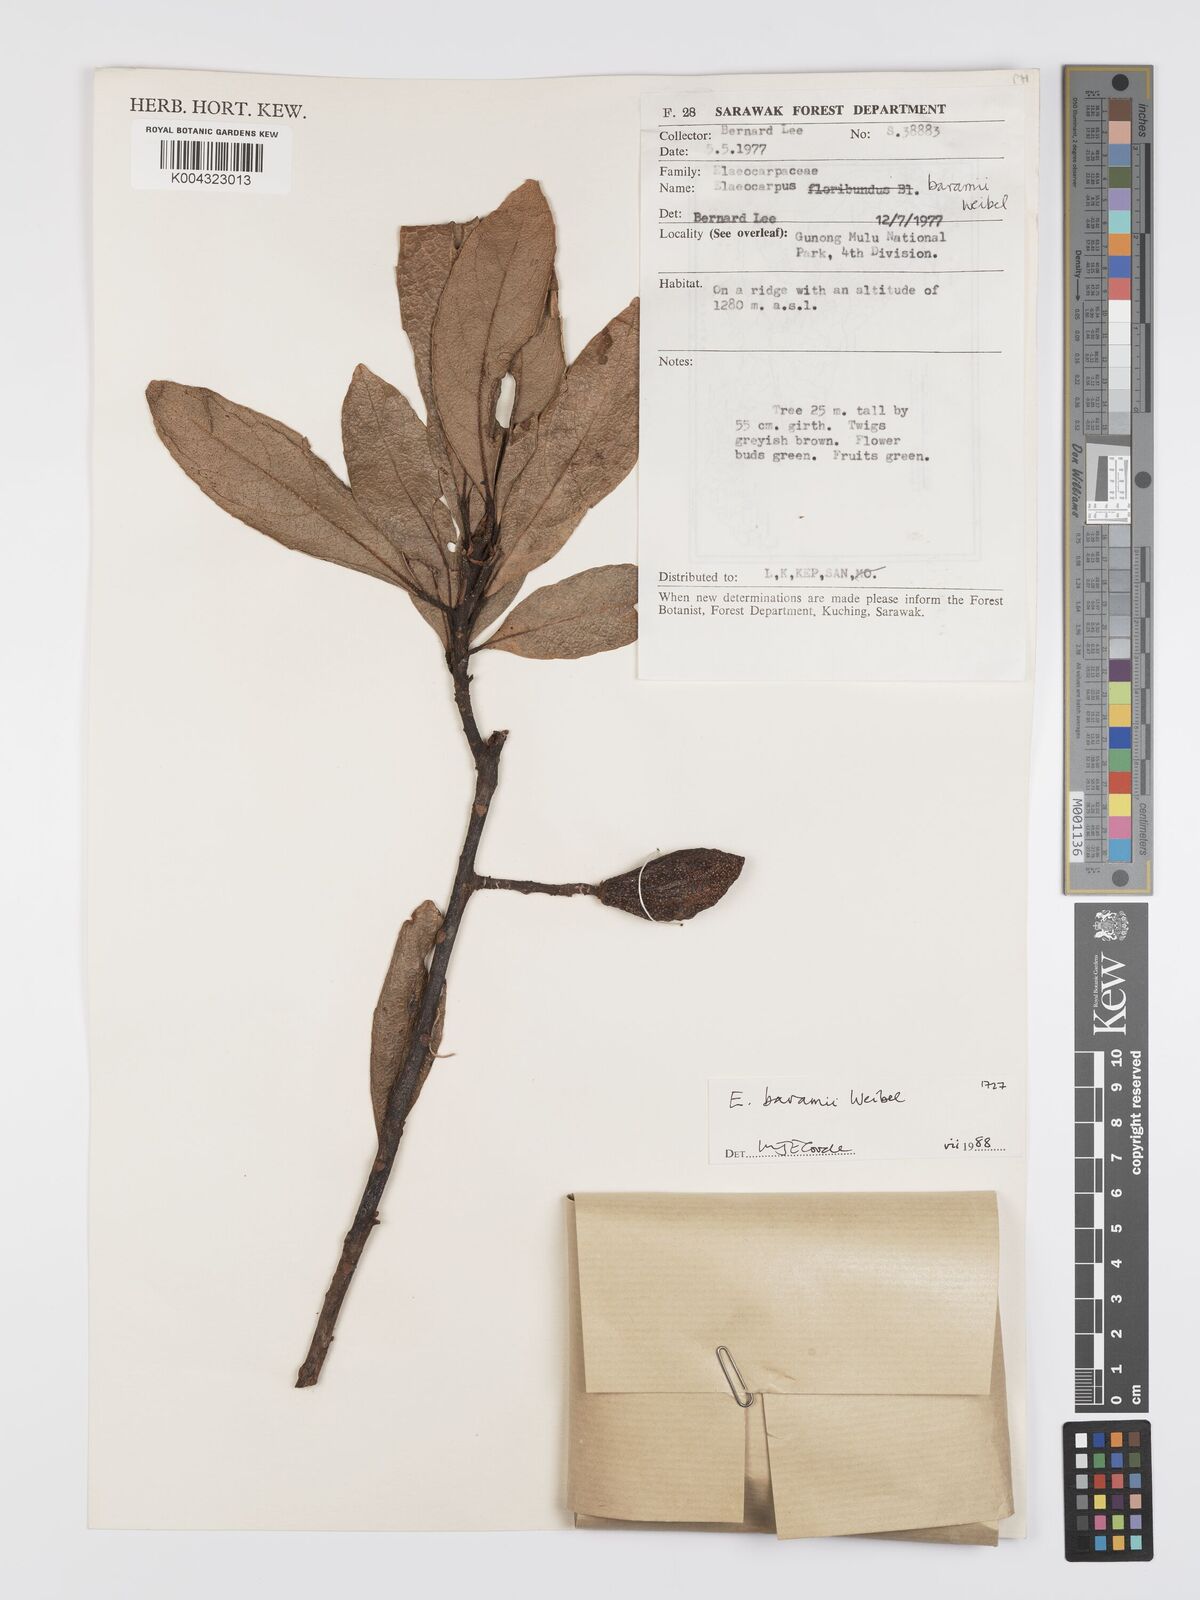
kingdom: Plantae
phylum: Tracheophyta
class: Magnoliopsida
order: Oxalidales
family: Elaeocarpaceae
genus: Elaeocarpus
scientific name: Elaeocarpus baramii
